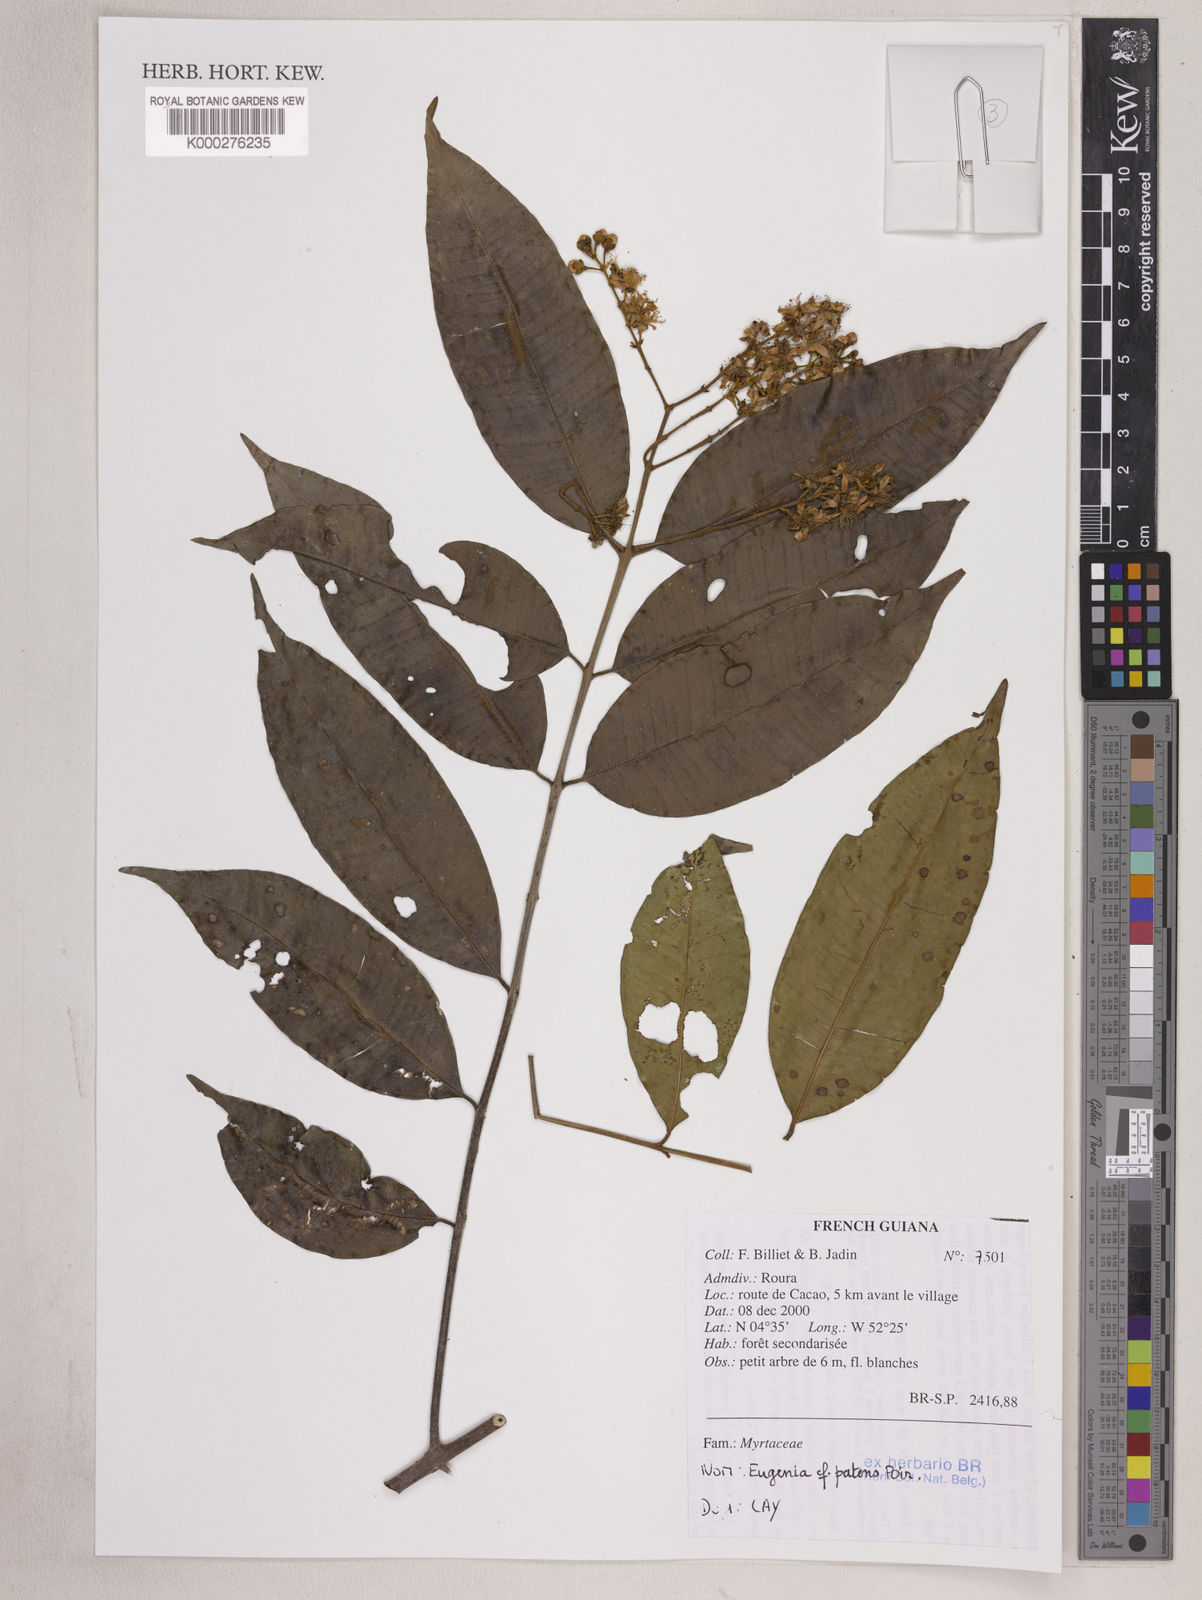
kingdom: Plantae
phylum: Tracheophyta
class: Magnoliopsida
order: Myrtales
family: Myrtaceae
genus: Eugenia
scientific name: Eugenia patens
